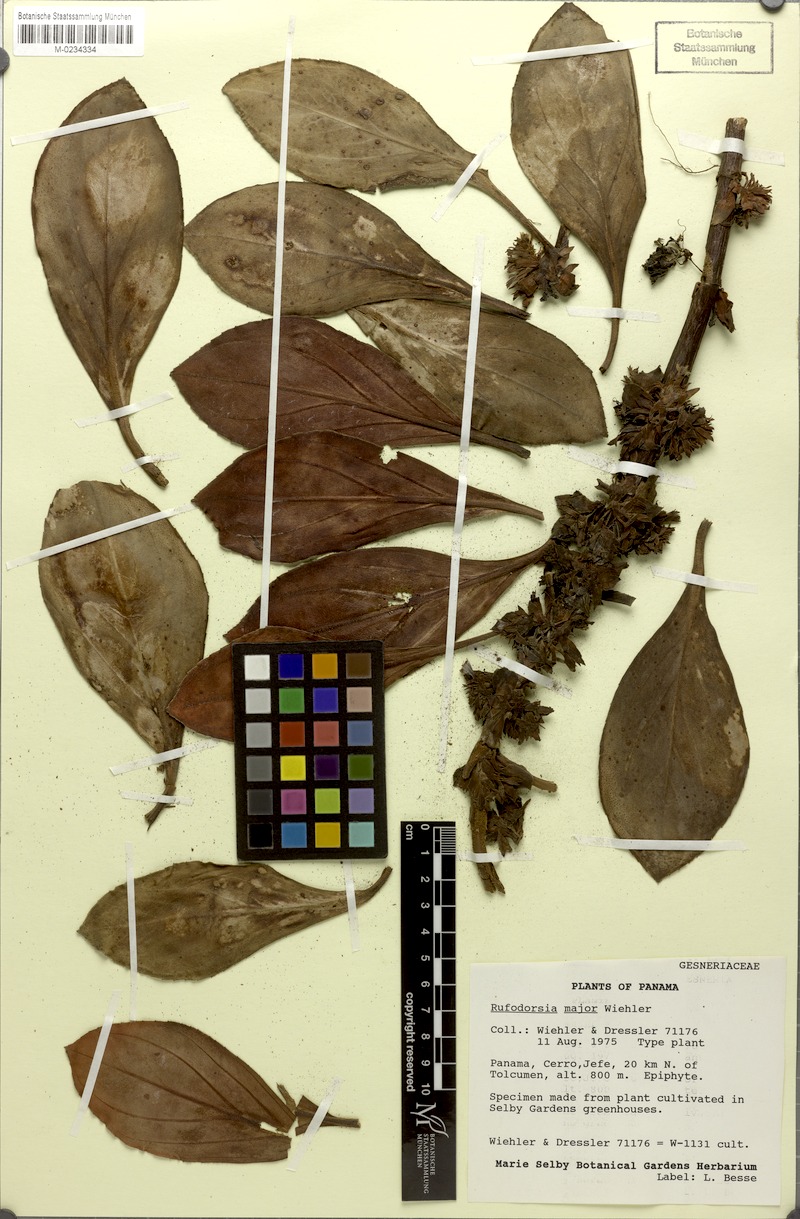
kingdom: Plantae
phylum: Tracheophyta
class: Magnoliopsida
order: Lamiales
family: Gesneriaceae
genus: Rufodorsia
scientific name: Rufodorsia major
